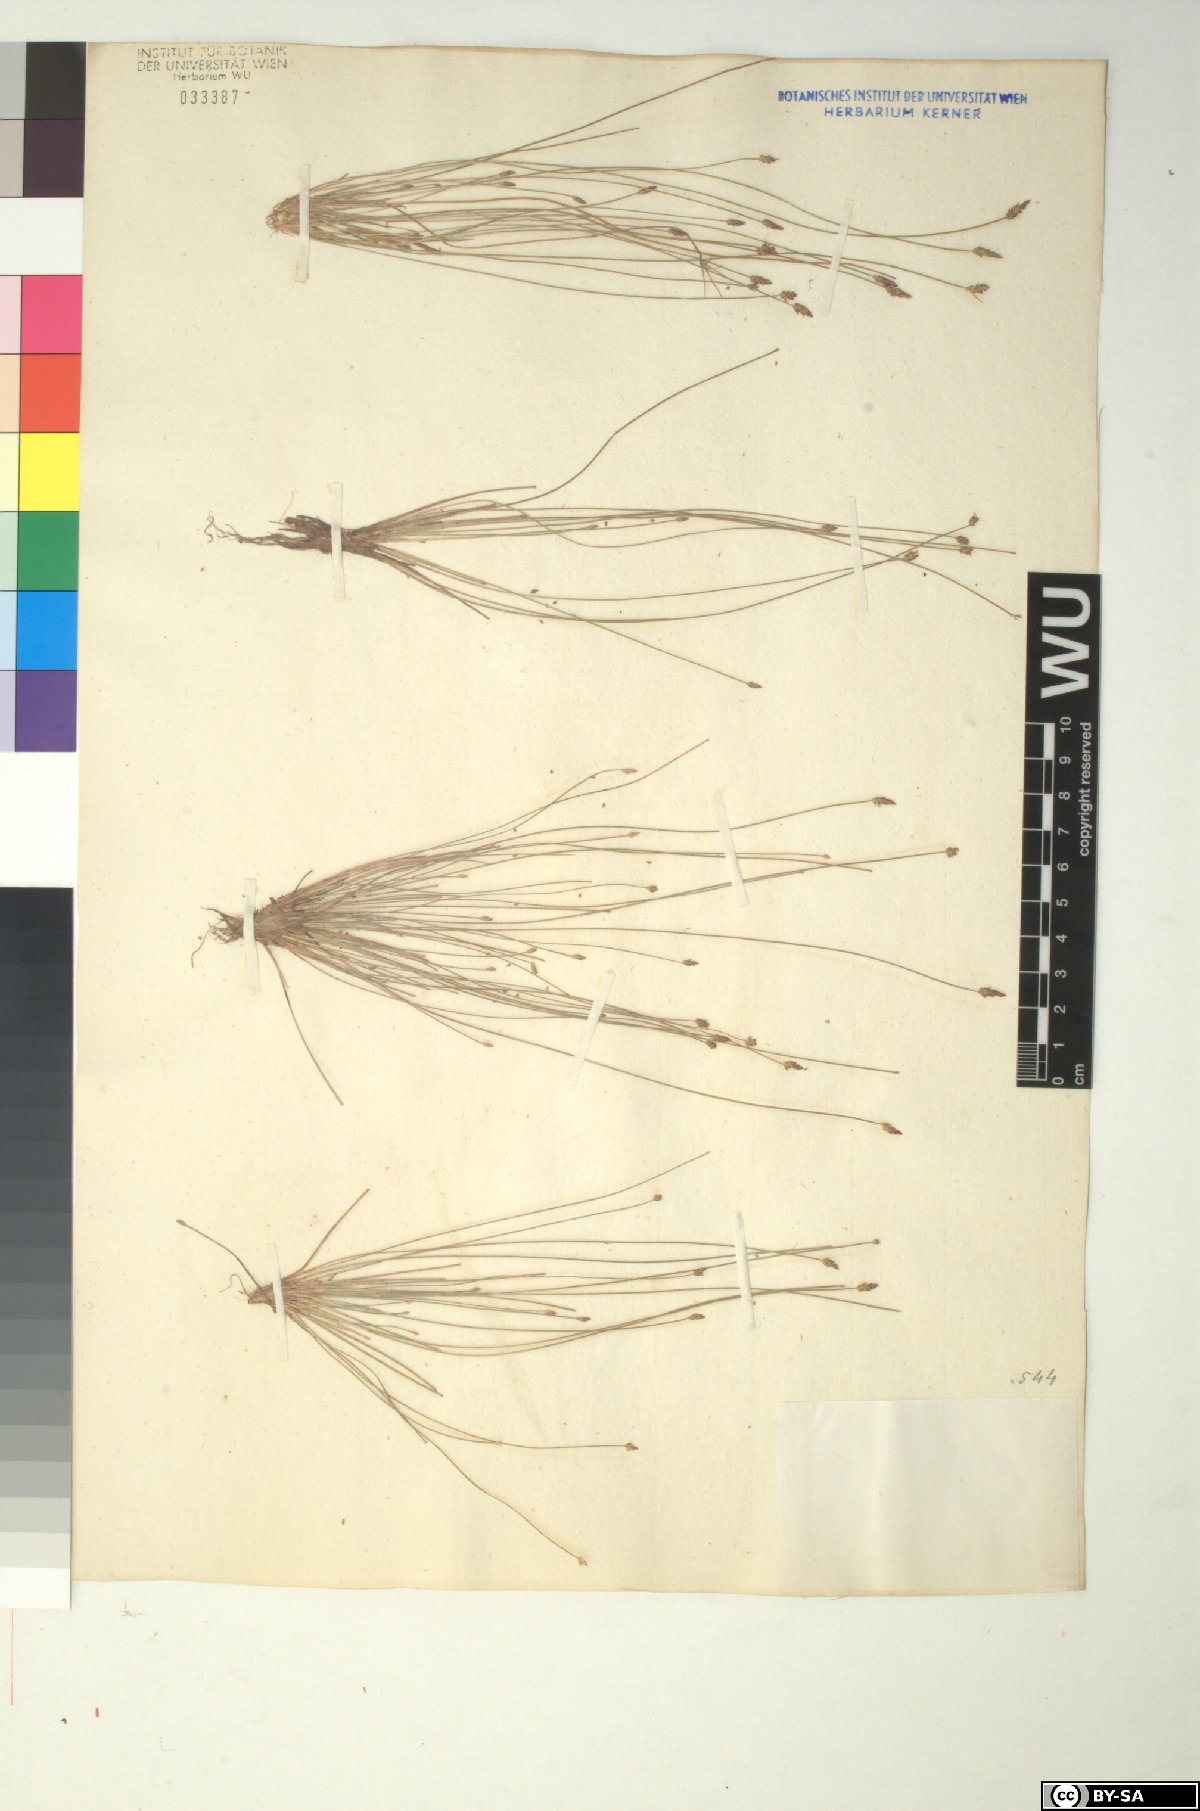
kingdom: Plantae
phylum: Tracheophyta
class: Liliopsida
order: Poales
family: Cyperaceae
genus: Eleocharis
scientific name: Eleocharis carniolica
